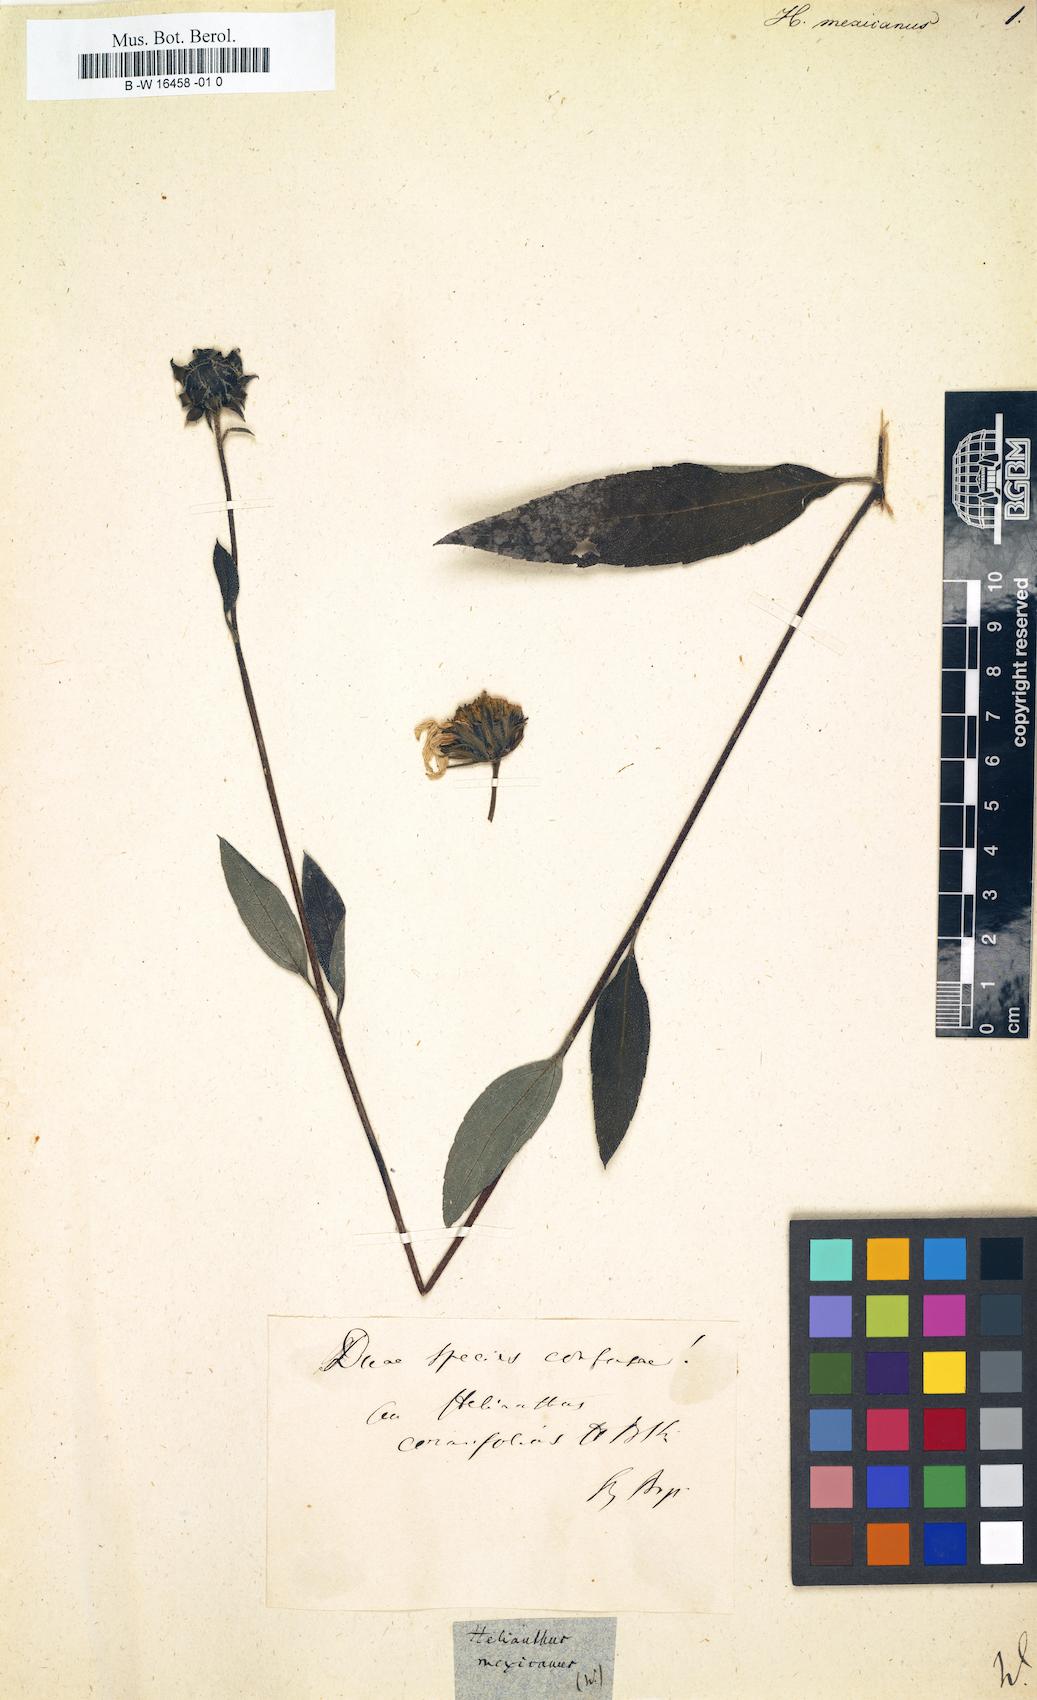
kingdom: Plantae
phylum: Tracheophyta
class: Magnoliopsida
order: Asterales
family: Asteraceae
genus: Helianthus
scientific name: Helianthus mexicanus
